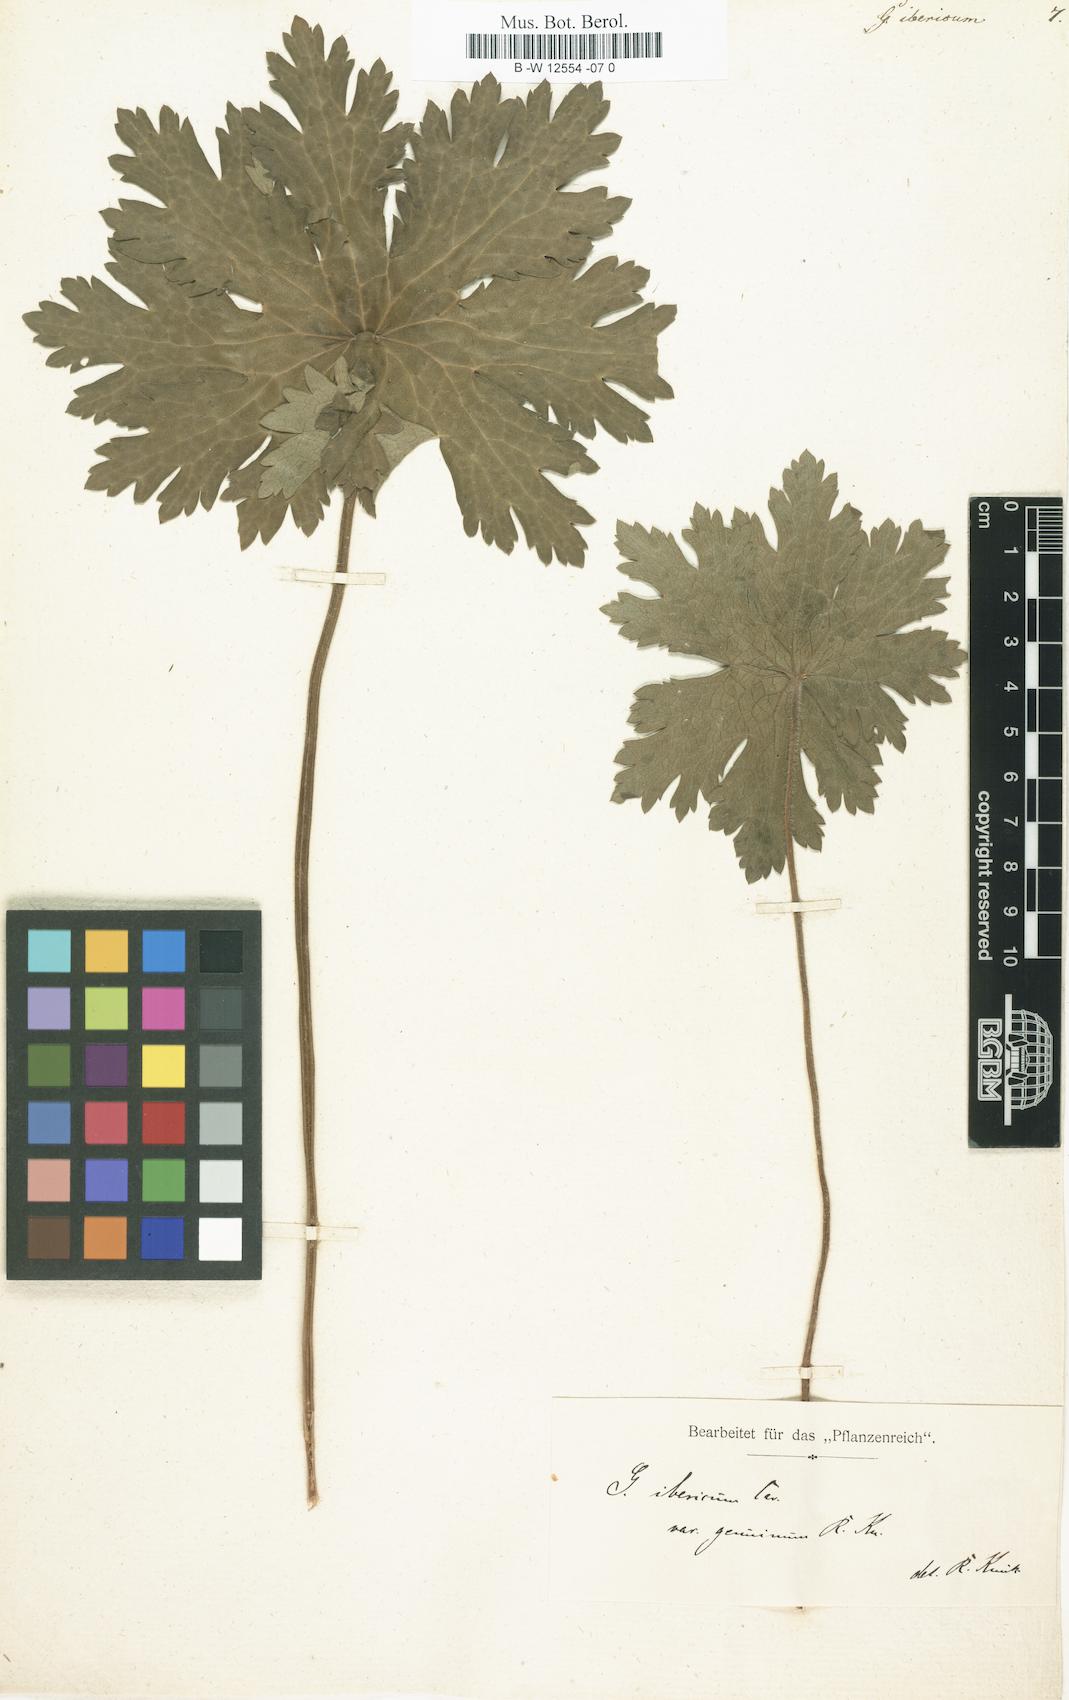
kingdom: Plantae
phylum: Tracheophyta
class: Magnoliopsida
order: Geraniales
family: Geraniaceae
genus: Geranium
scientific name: Geranium ibericum
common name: Caucasian crane's-bill
